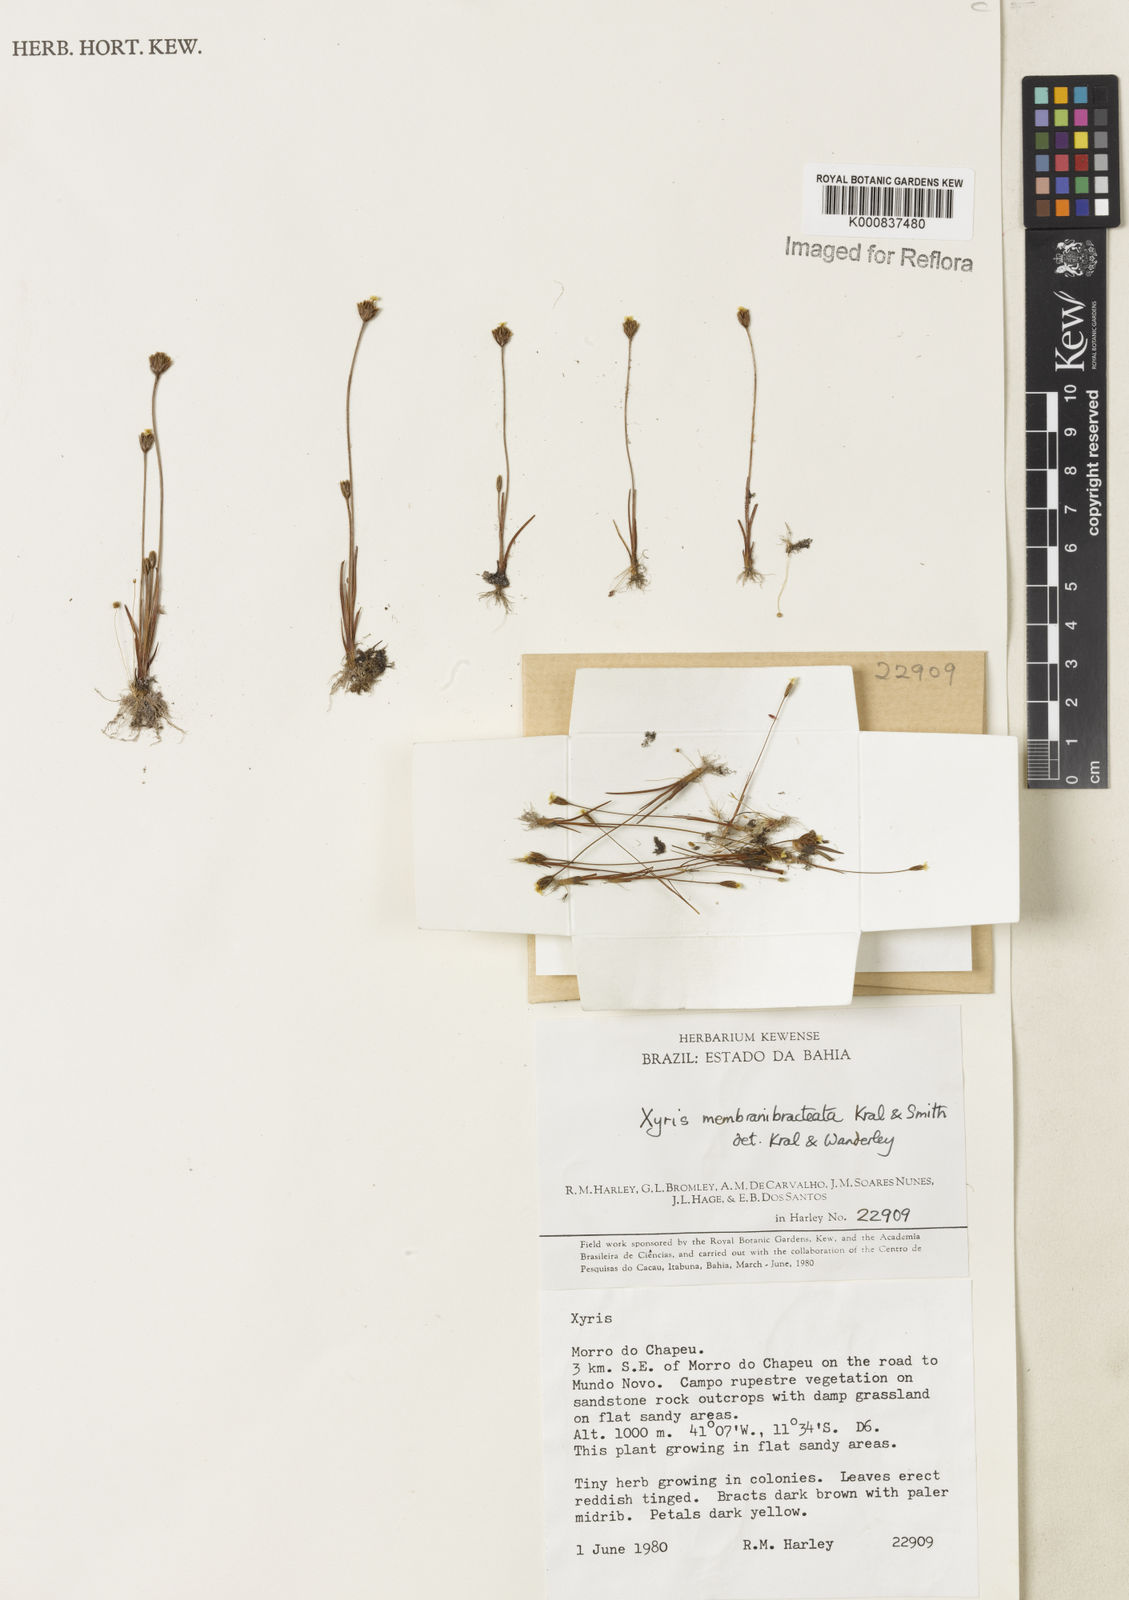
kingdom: Plantae
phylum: Tracheophyta
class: Liliopsida
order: Poales
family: Xyridaceae
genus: Xyris
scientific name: Xyris membranibracteata
